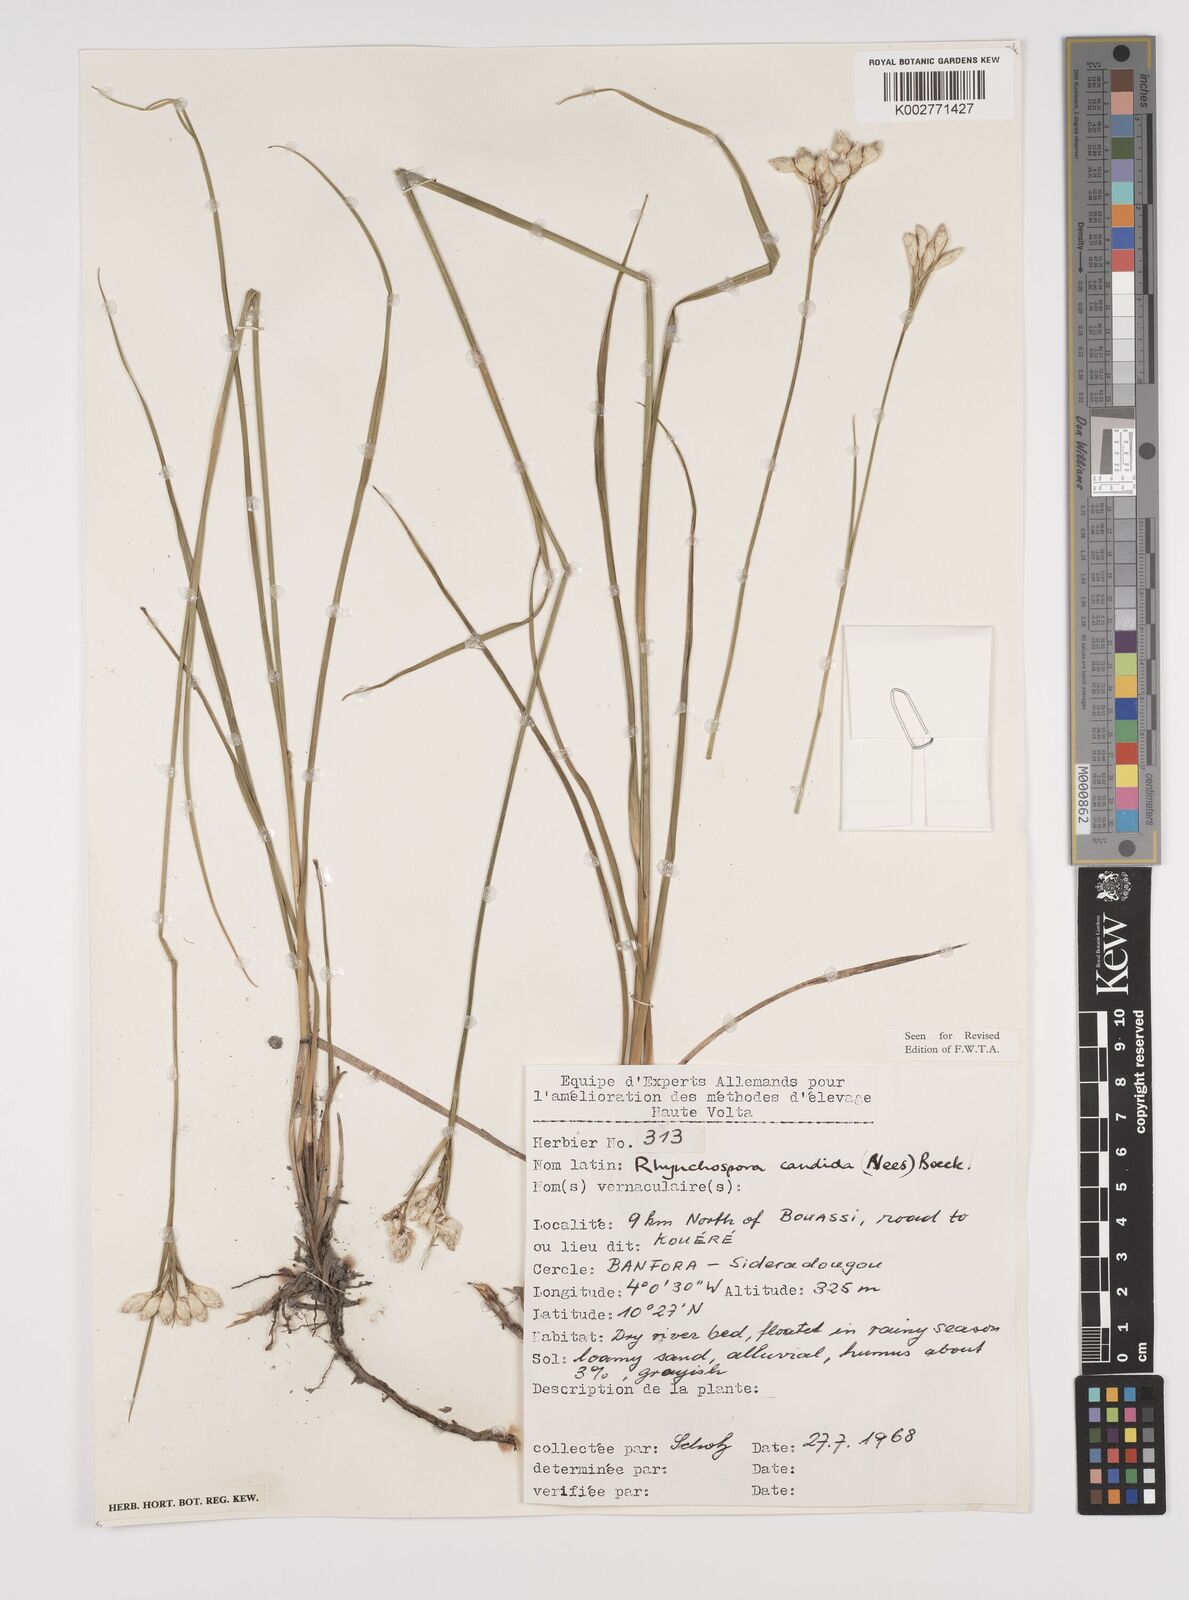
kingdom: Plantae
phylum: Tracheophyta
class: Liliopsida
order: Poales
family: Cyperaceae
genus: Rhynchospora
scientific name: Rhynchospora candida
